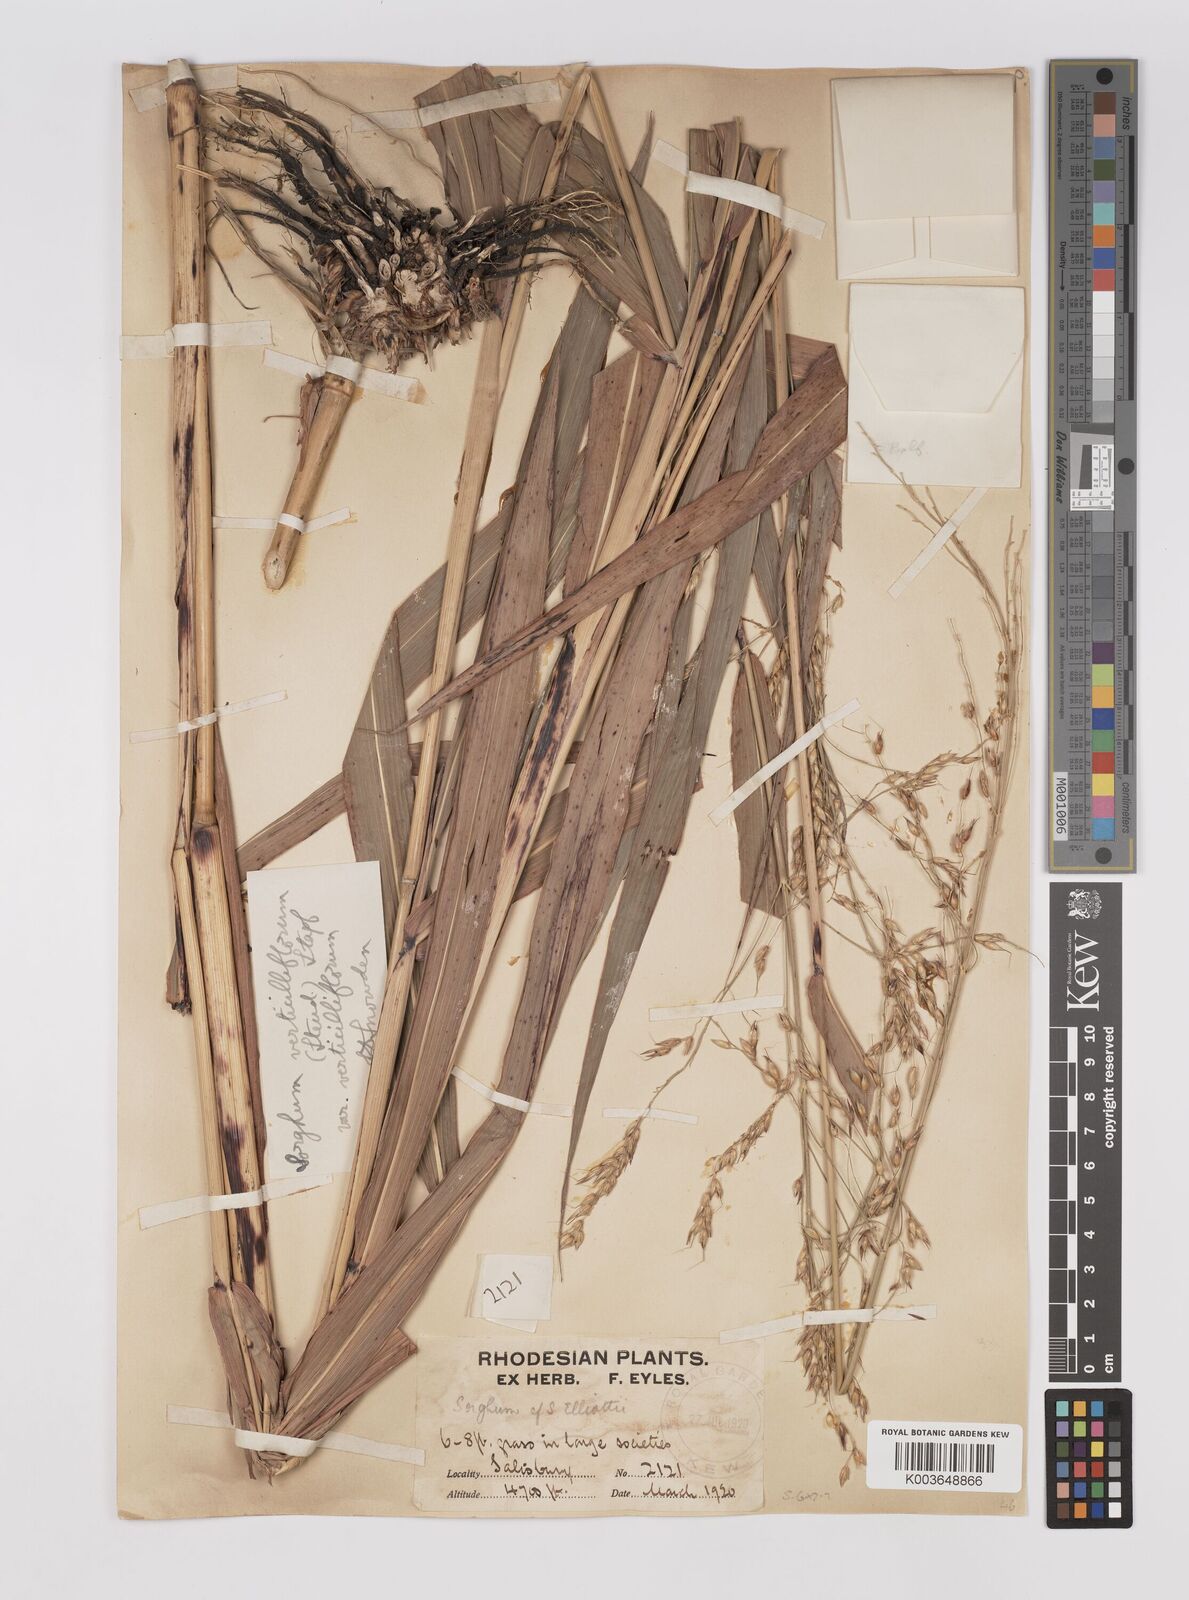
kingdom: Plantae
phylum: Tracheophyta
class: Liliopsida
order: Poales
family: Poaceae
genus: Sorghum
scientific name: Sorghum arundinaceum
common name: Sorghum
